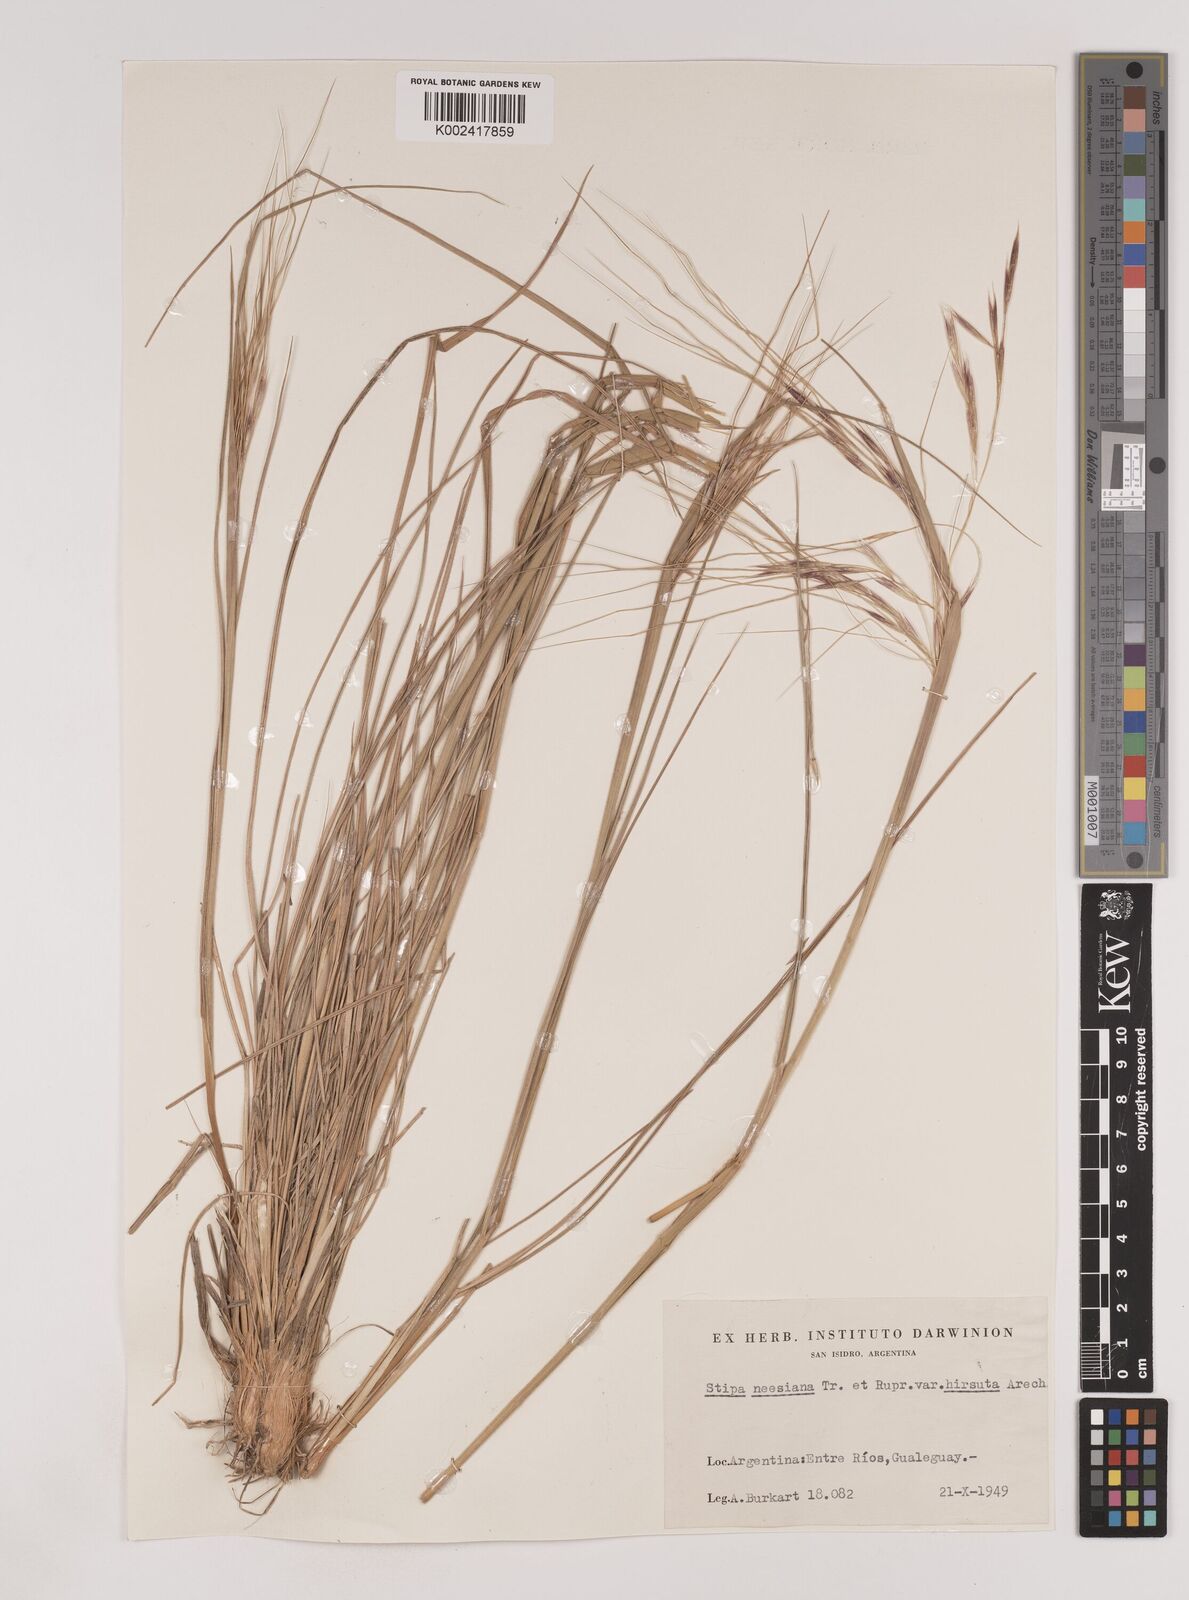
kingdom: Plantae
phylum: Tracheophyta
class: Liliopsida
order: Poales
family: Poaceae
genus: Nassella
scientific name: Nassella neesiana
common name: American needle-grass
